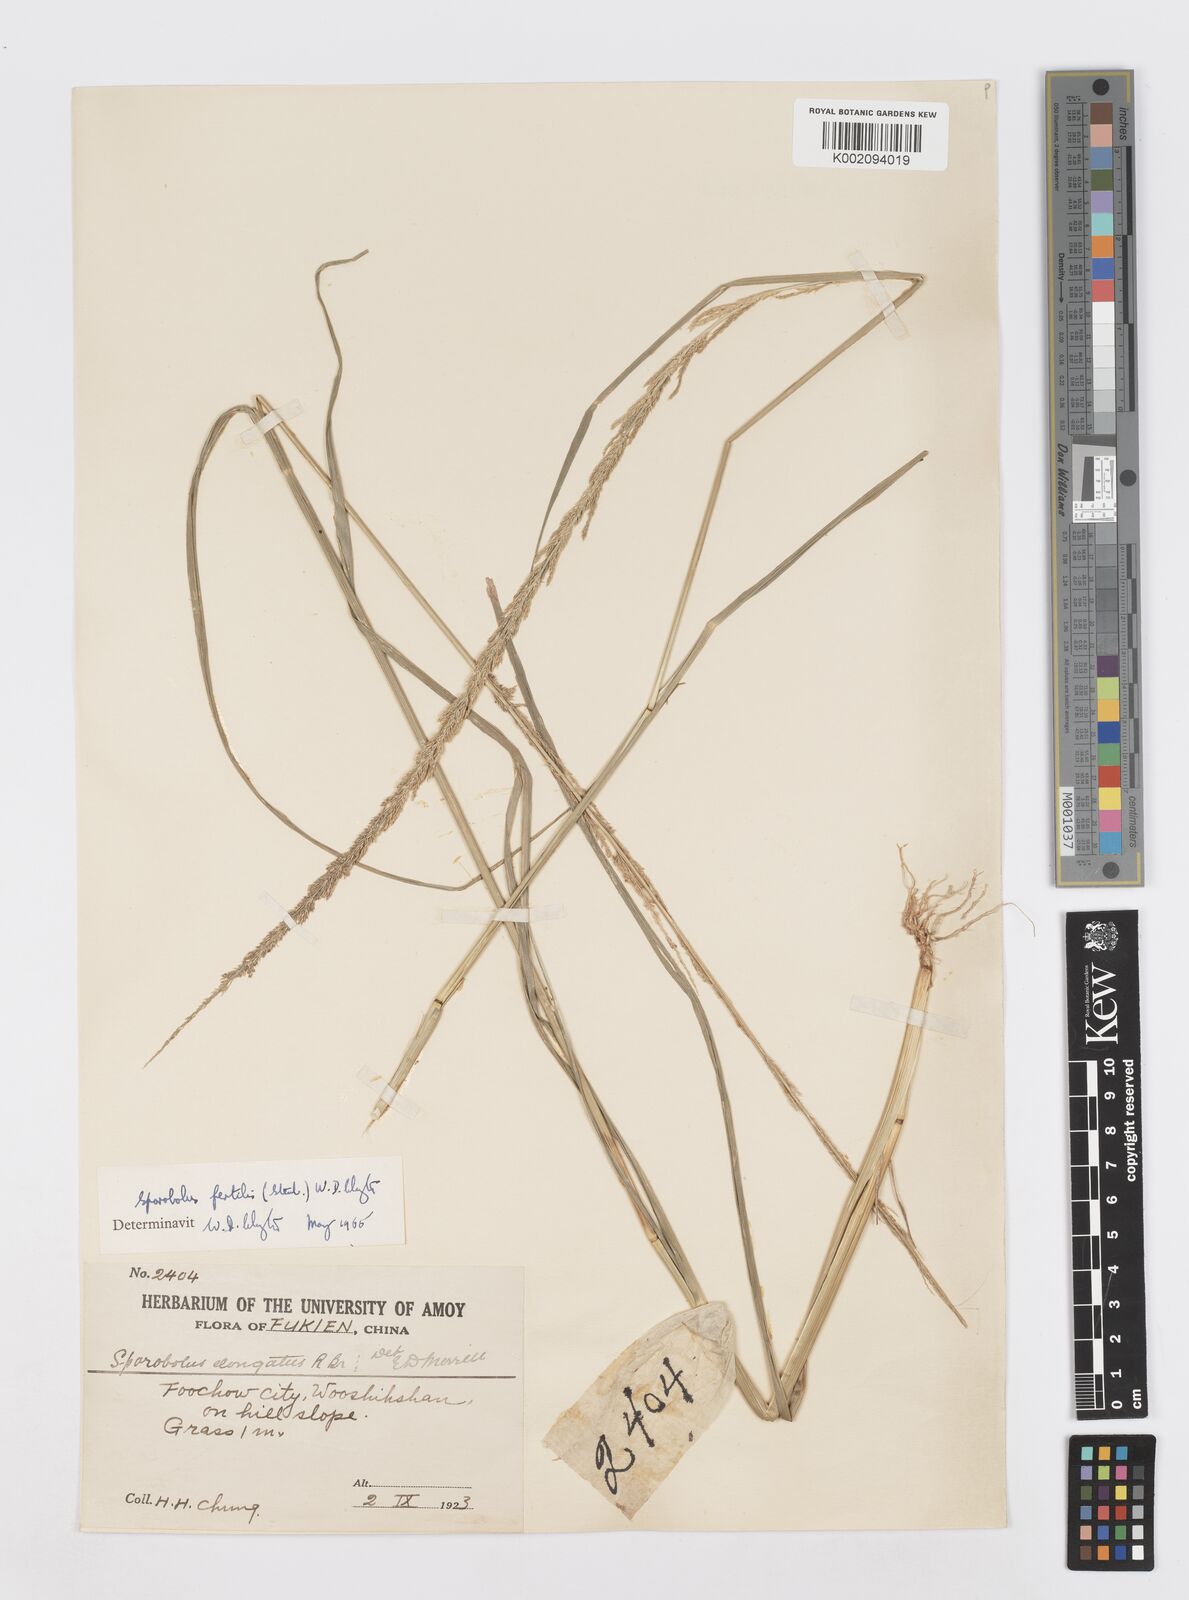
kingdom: Plantae
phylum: Tracheophyta
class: Liliopsida
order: Poales
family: Poaceae
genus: Sporobolus
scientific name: Sporobolus fertilis
